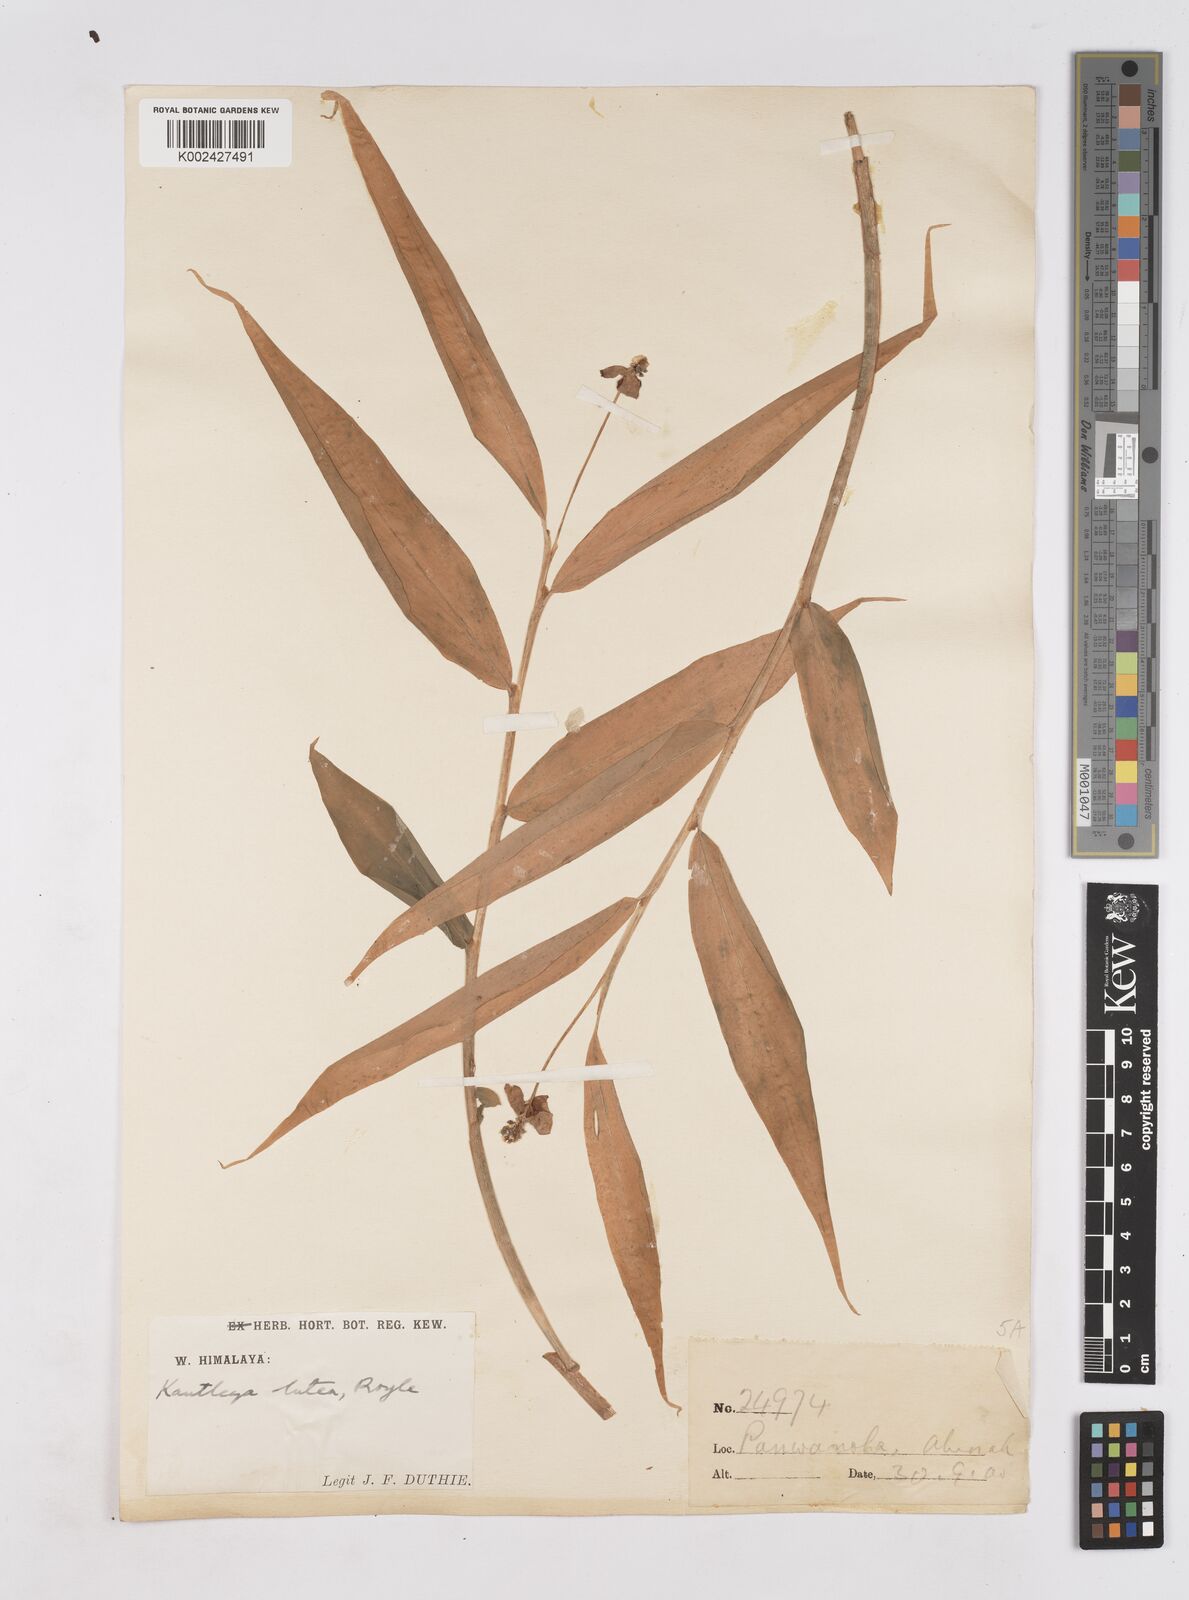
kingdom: Plantae
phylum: Tracheophyta
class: Liliopsida
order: Zingiberales
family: Zingiberaceae
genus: Cautleya
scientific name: Cautleya gracilis
